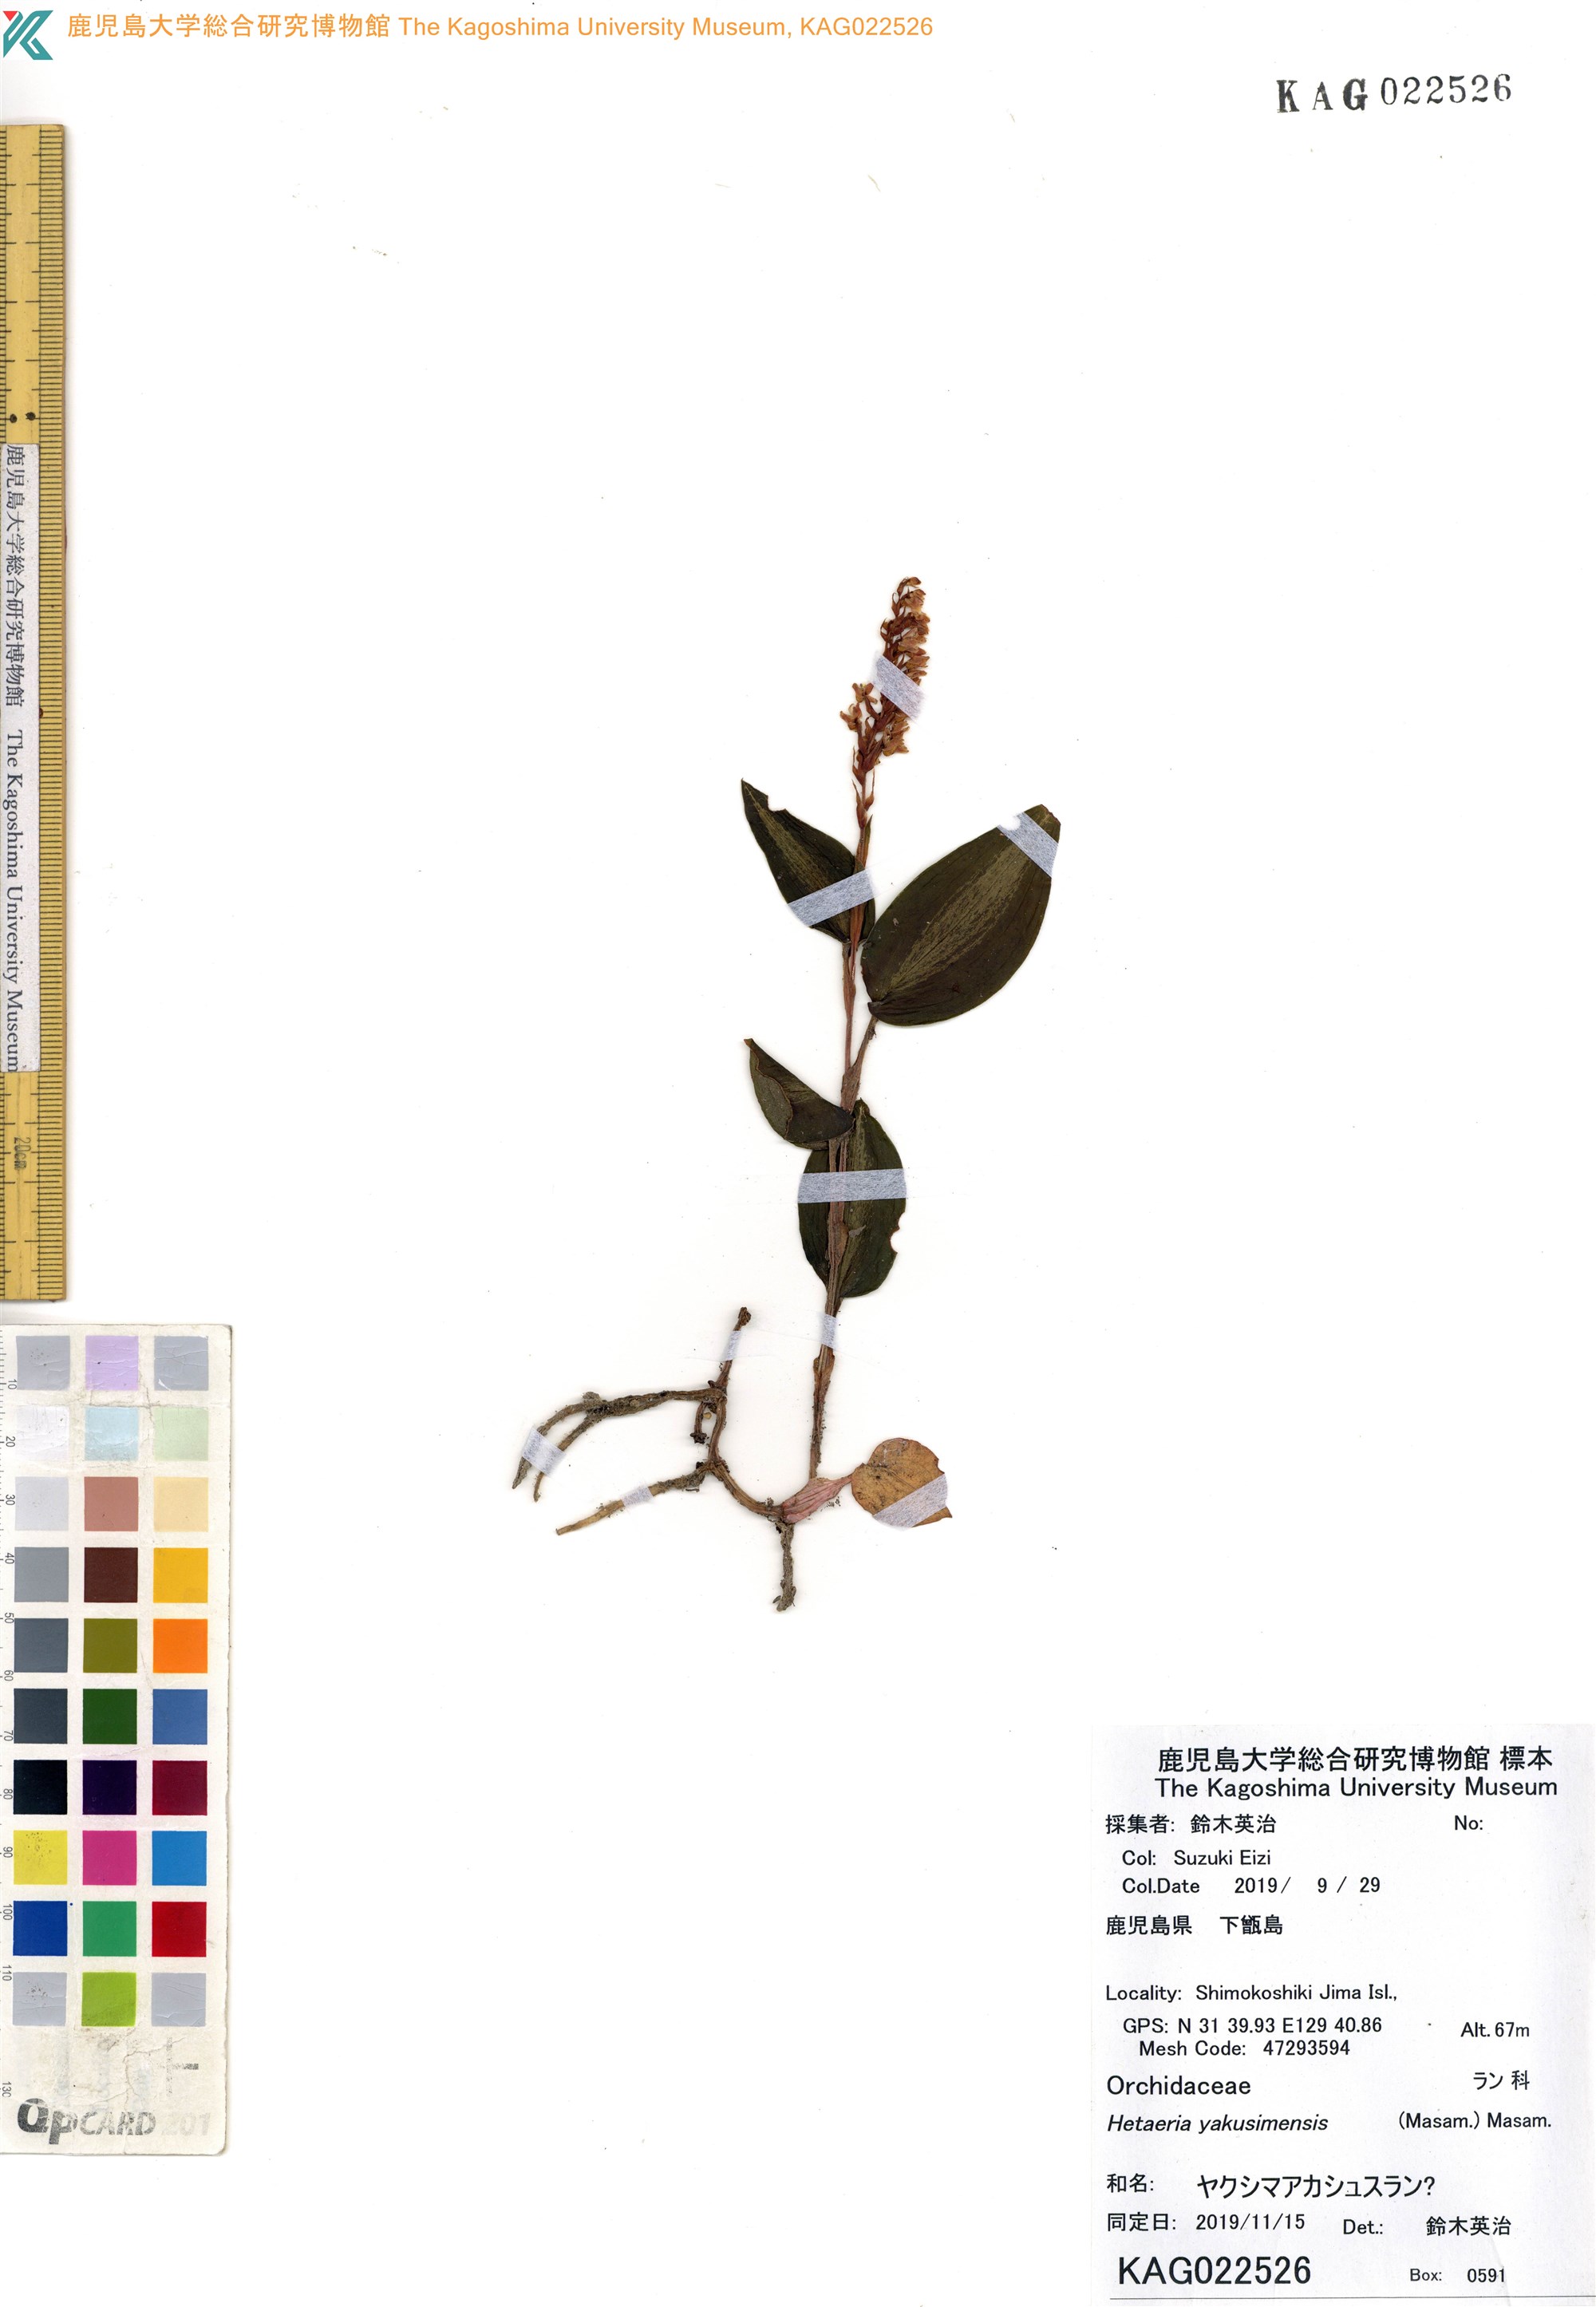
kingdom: Plantae
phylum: Tracheophyta
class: Liliopsida
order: Asparagales
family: Orchidaceae
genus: Rhomboda
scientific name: Rhomboda yakusimensis
